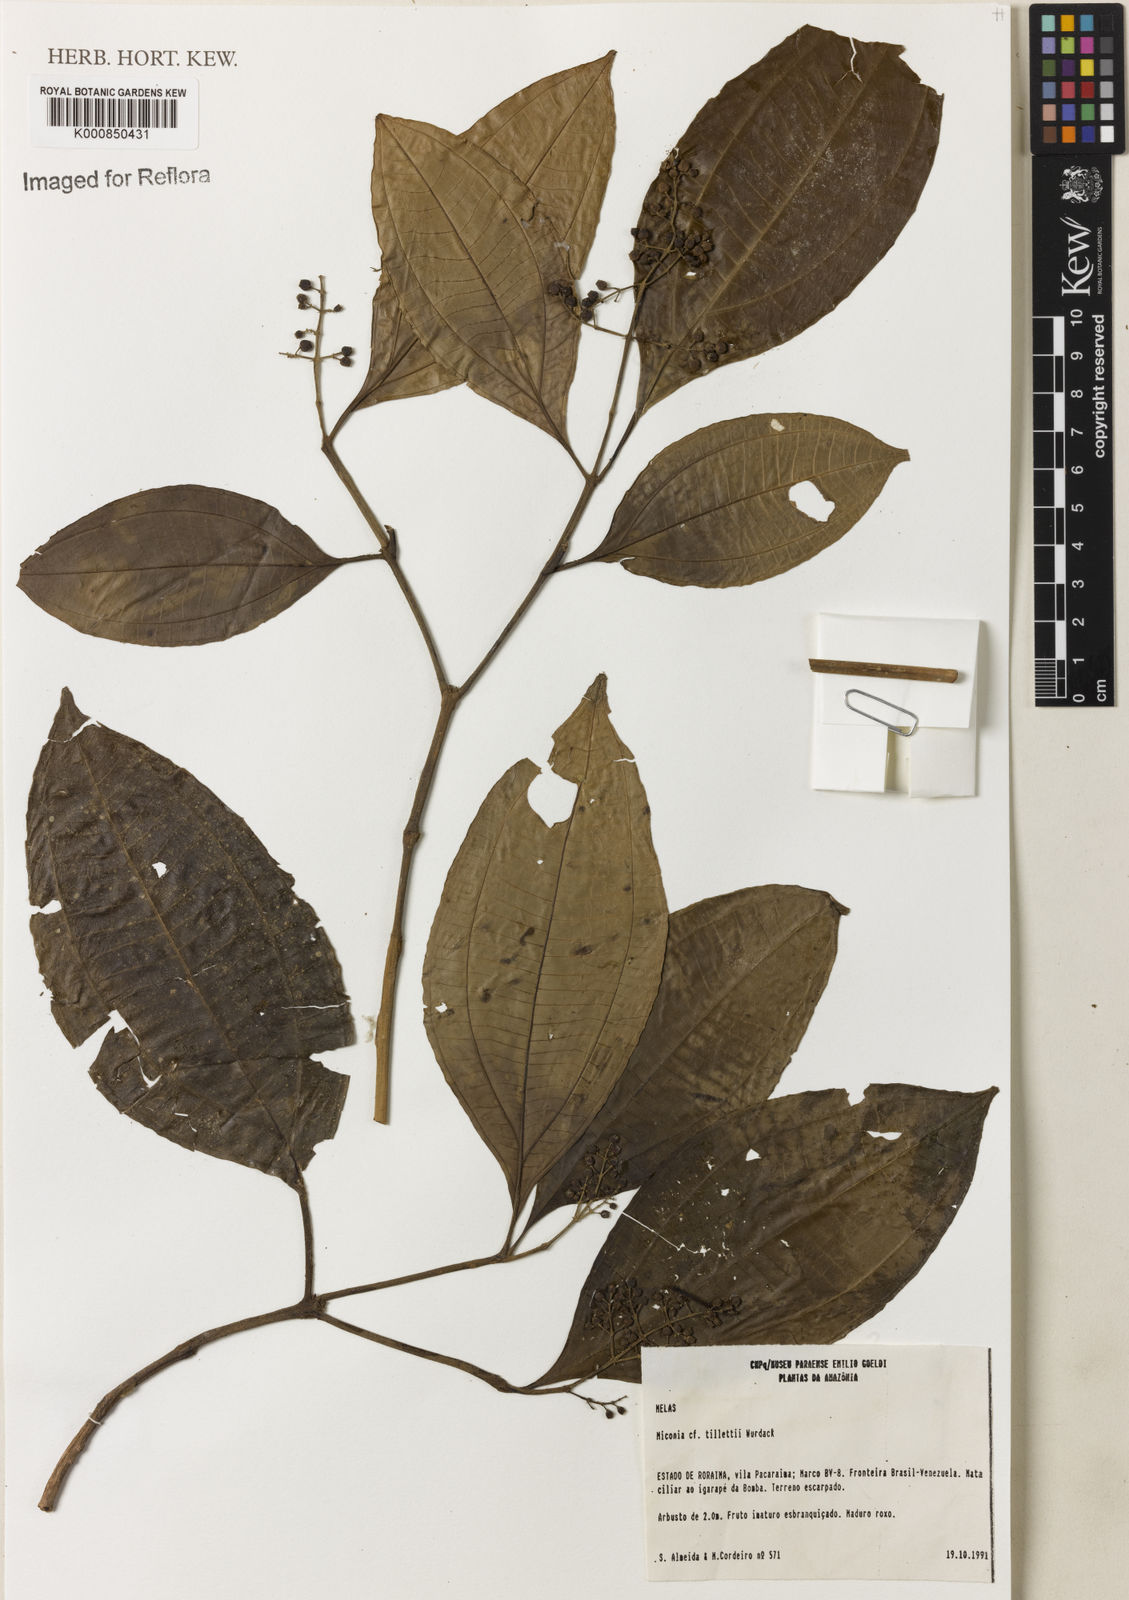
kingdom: Plantae
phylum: Tracheophyta
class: Magnoliopsida
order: Myrtales
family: Melastomataceae
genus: Miconia
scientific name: Miconia tillettii
